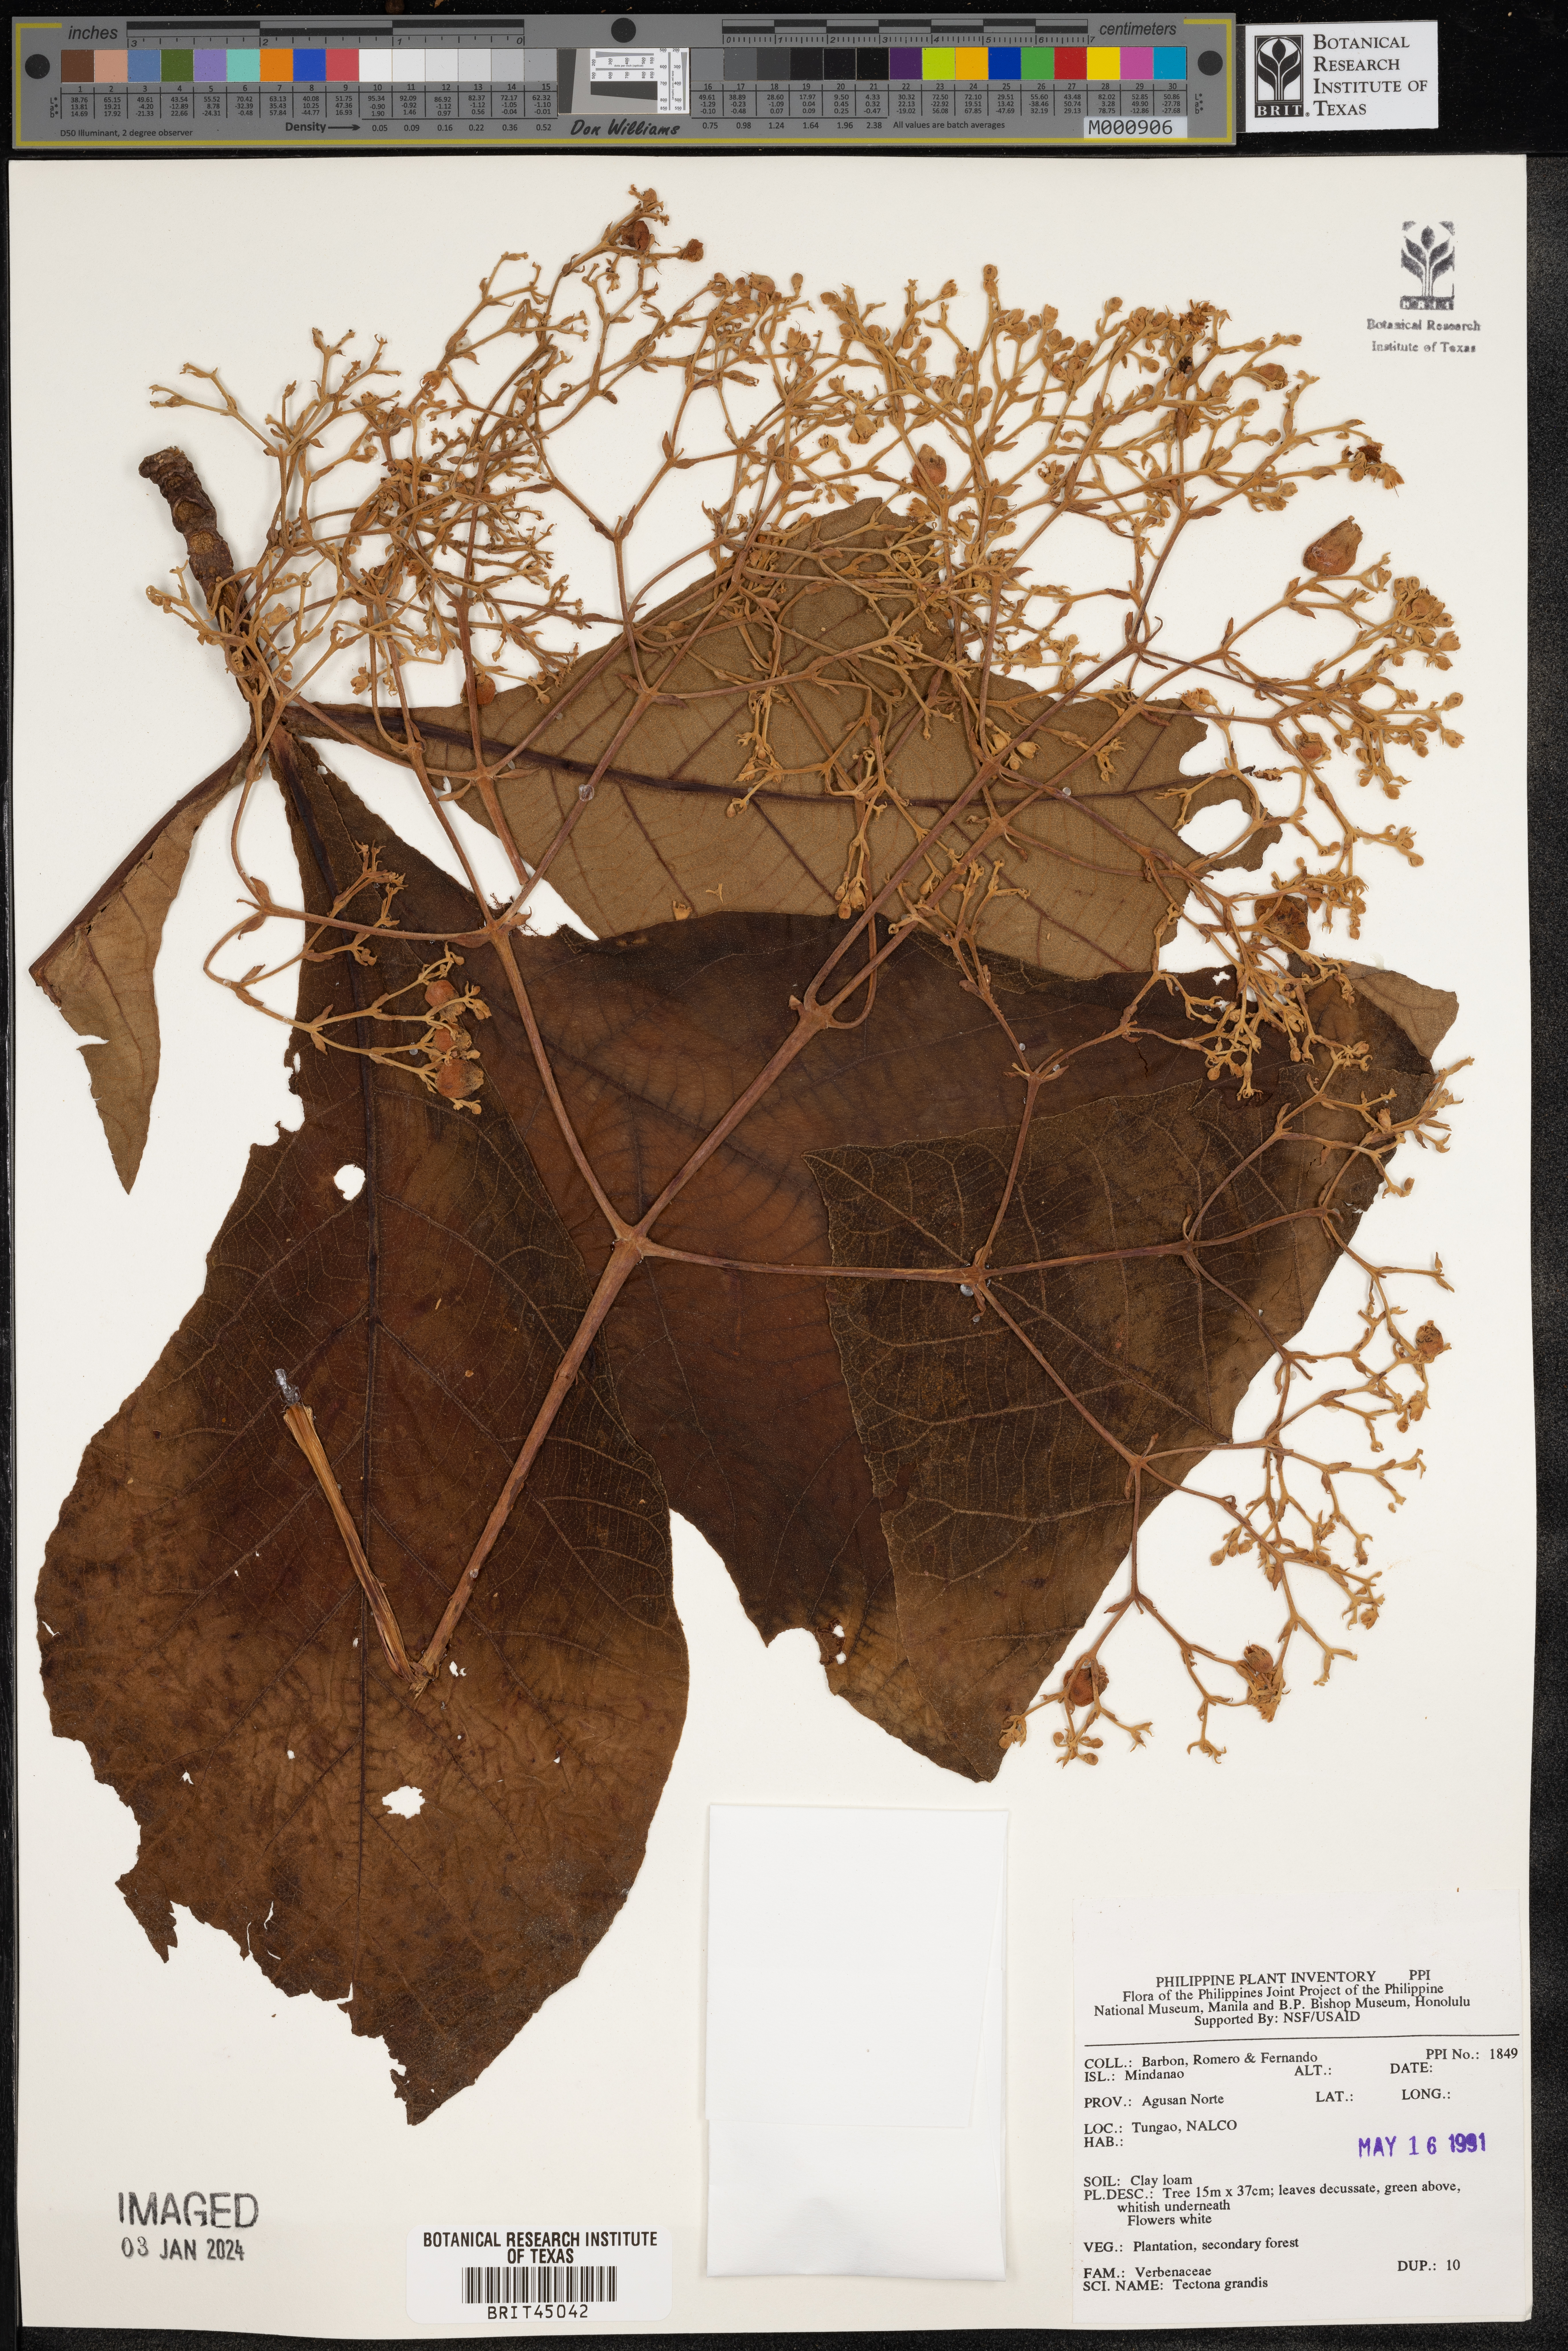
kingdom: Plantae
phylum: Tracheophyta
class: Magnoliopsida
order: Lamiales
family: Lamiaceae
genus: Tectona
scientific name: Tectona grandis
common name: Teak
